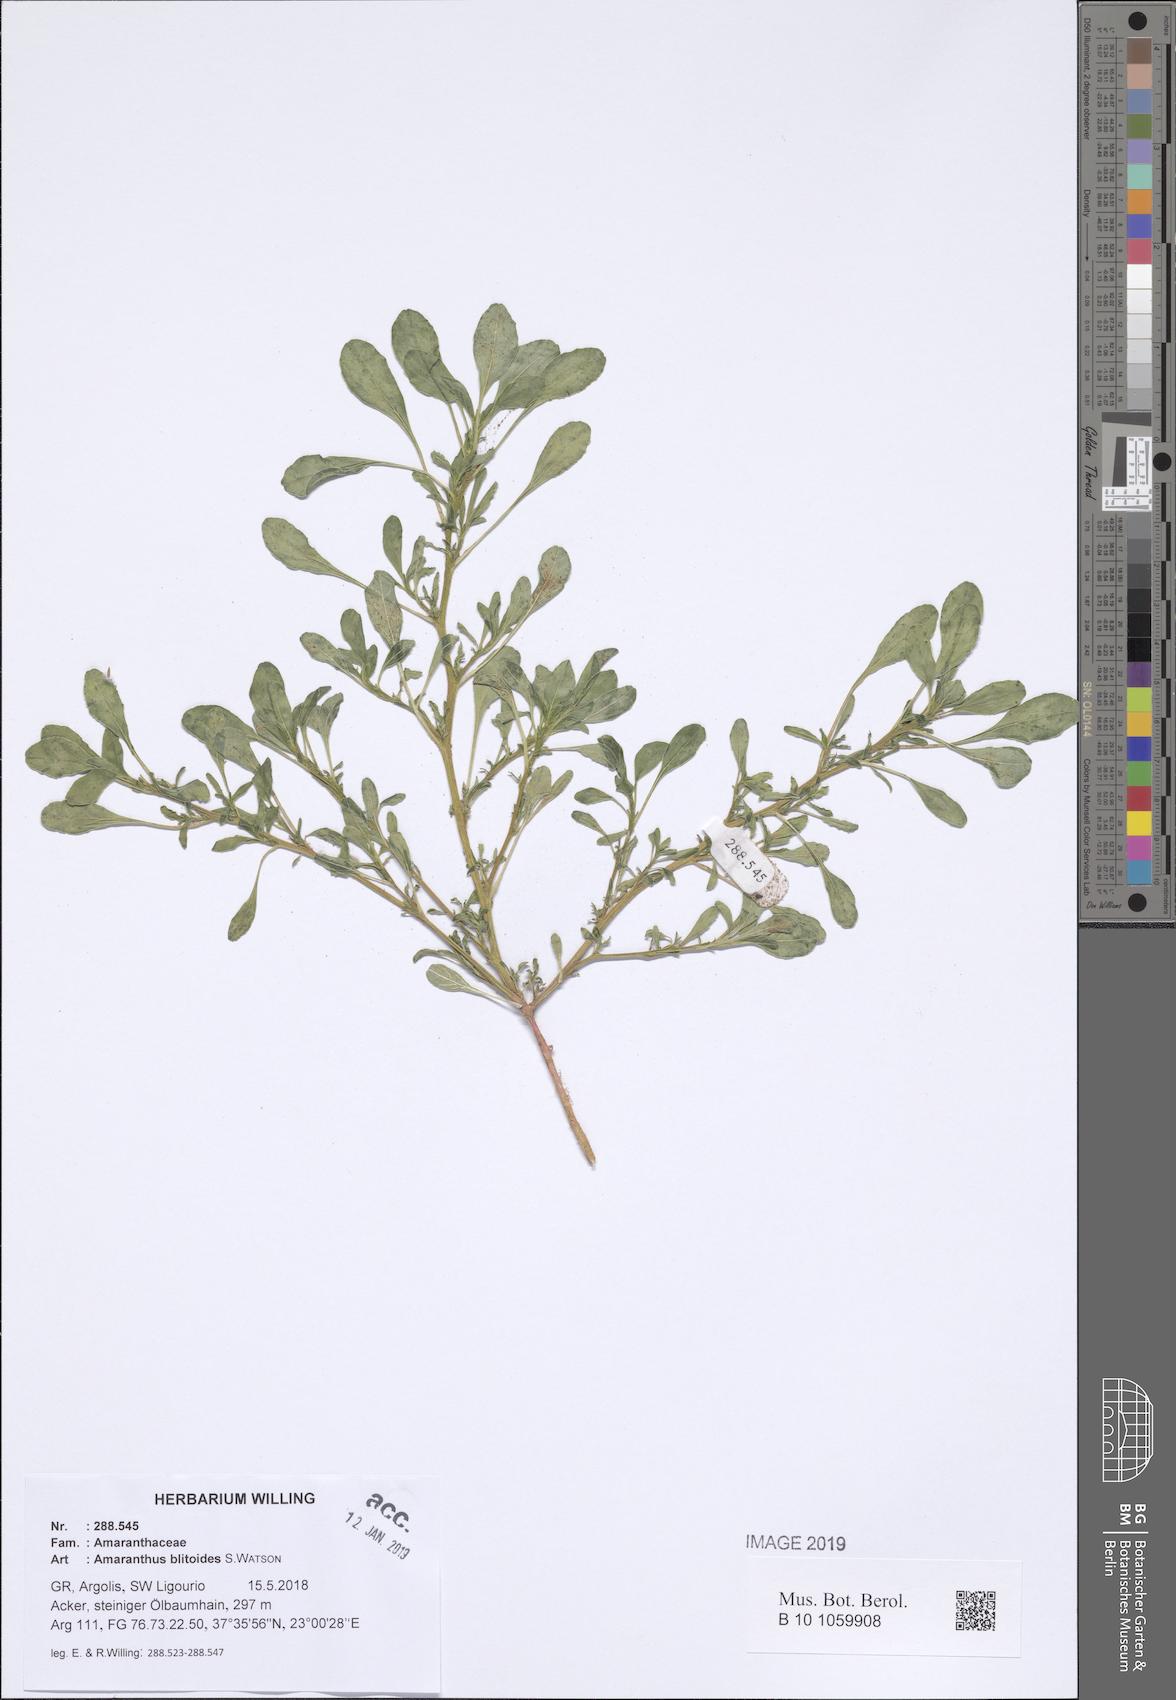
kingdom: Plantae
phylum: Tracheophyta
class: Magnoliopsida
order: Caryophyllales
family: Amaranthaceae
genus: Amaranthus
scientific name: Amaranthus blitoides
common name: Prostrate pigweed
